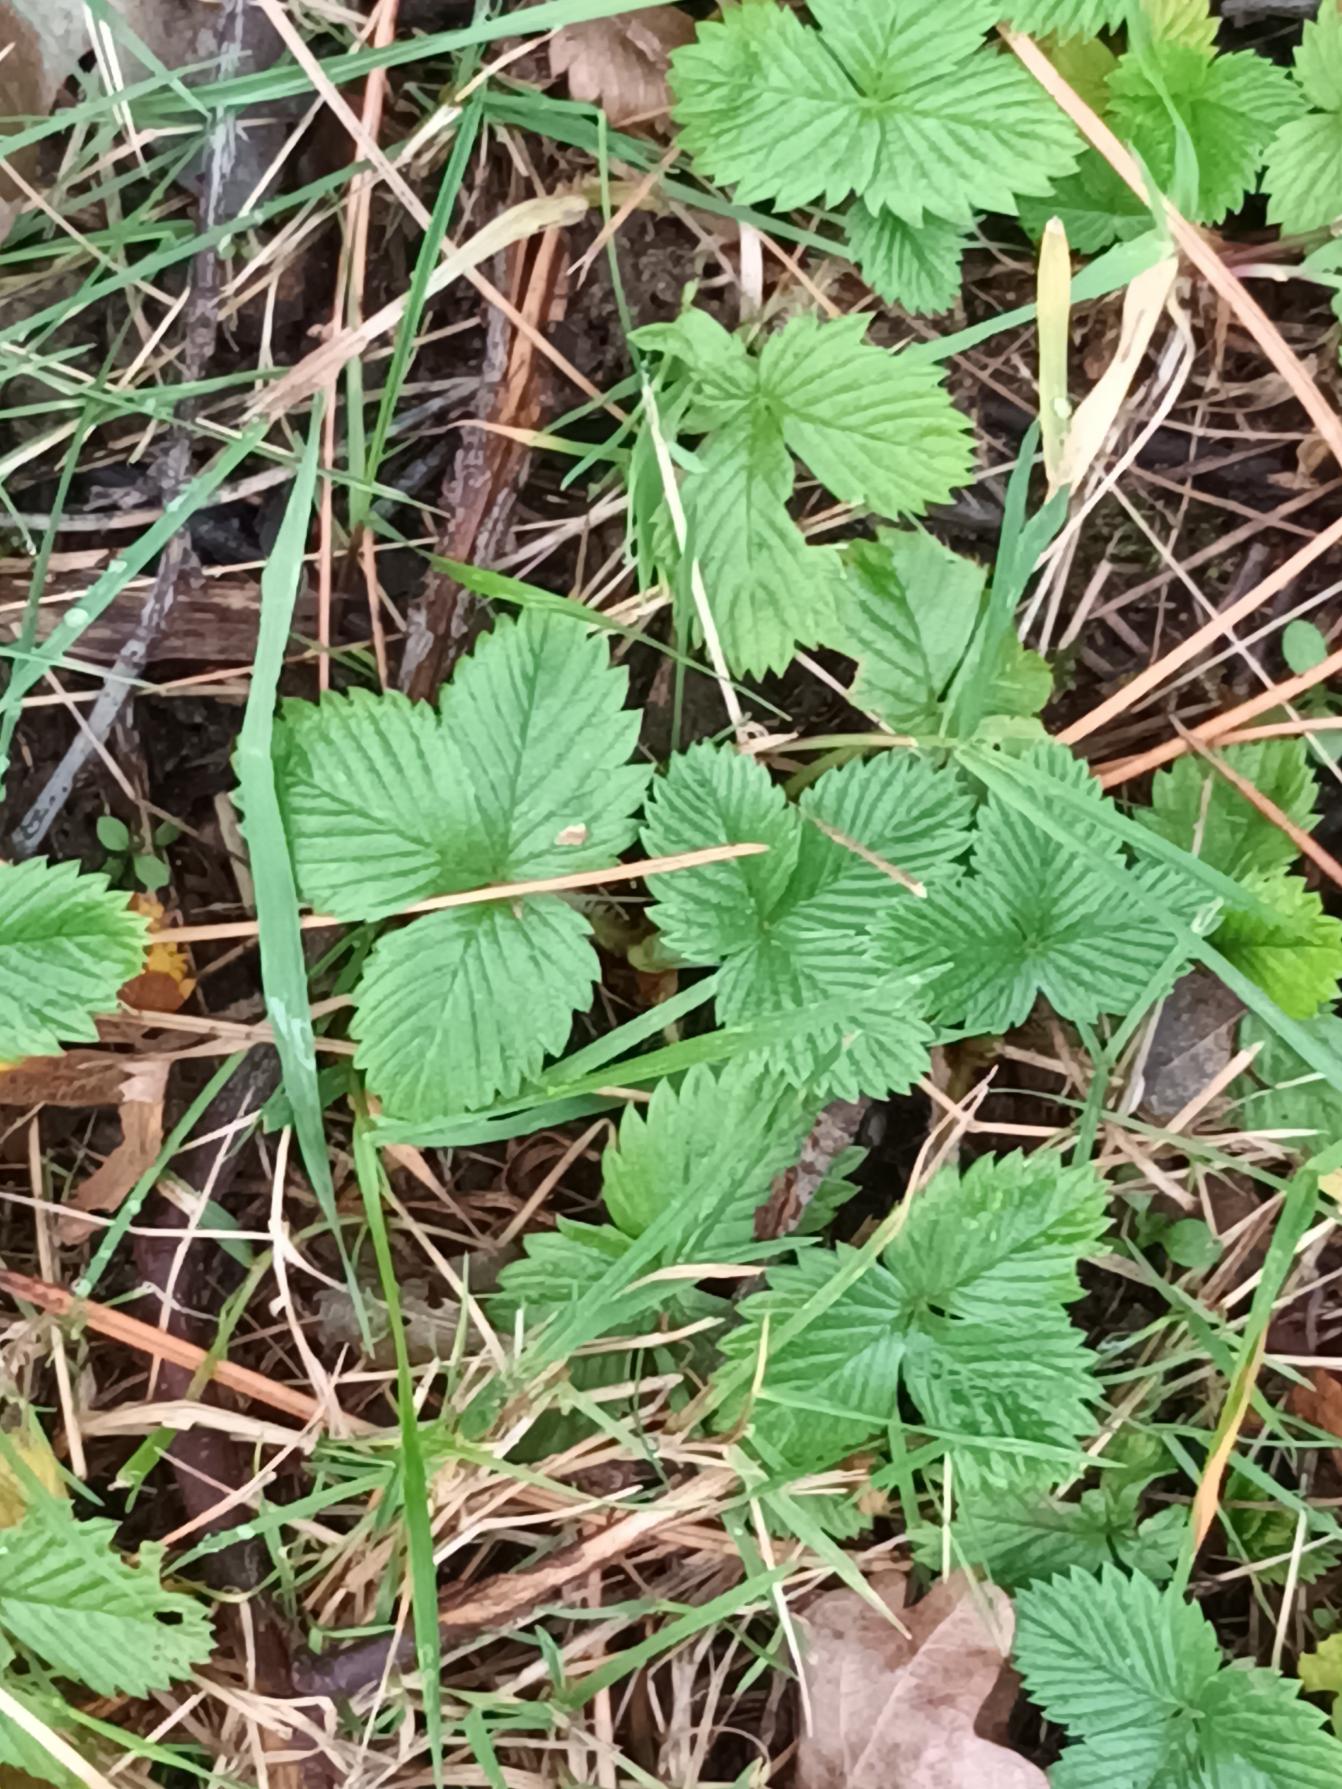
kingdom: Plantae
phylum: Tracheophyta
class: Magnoliopsida
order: Rosales
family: Rosaceae
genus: Fragaria
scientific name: Fragaria vesca
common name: Skov-jordbær
